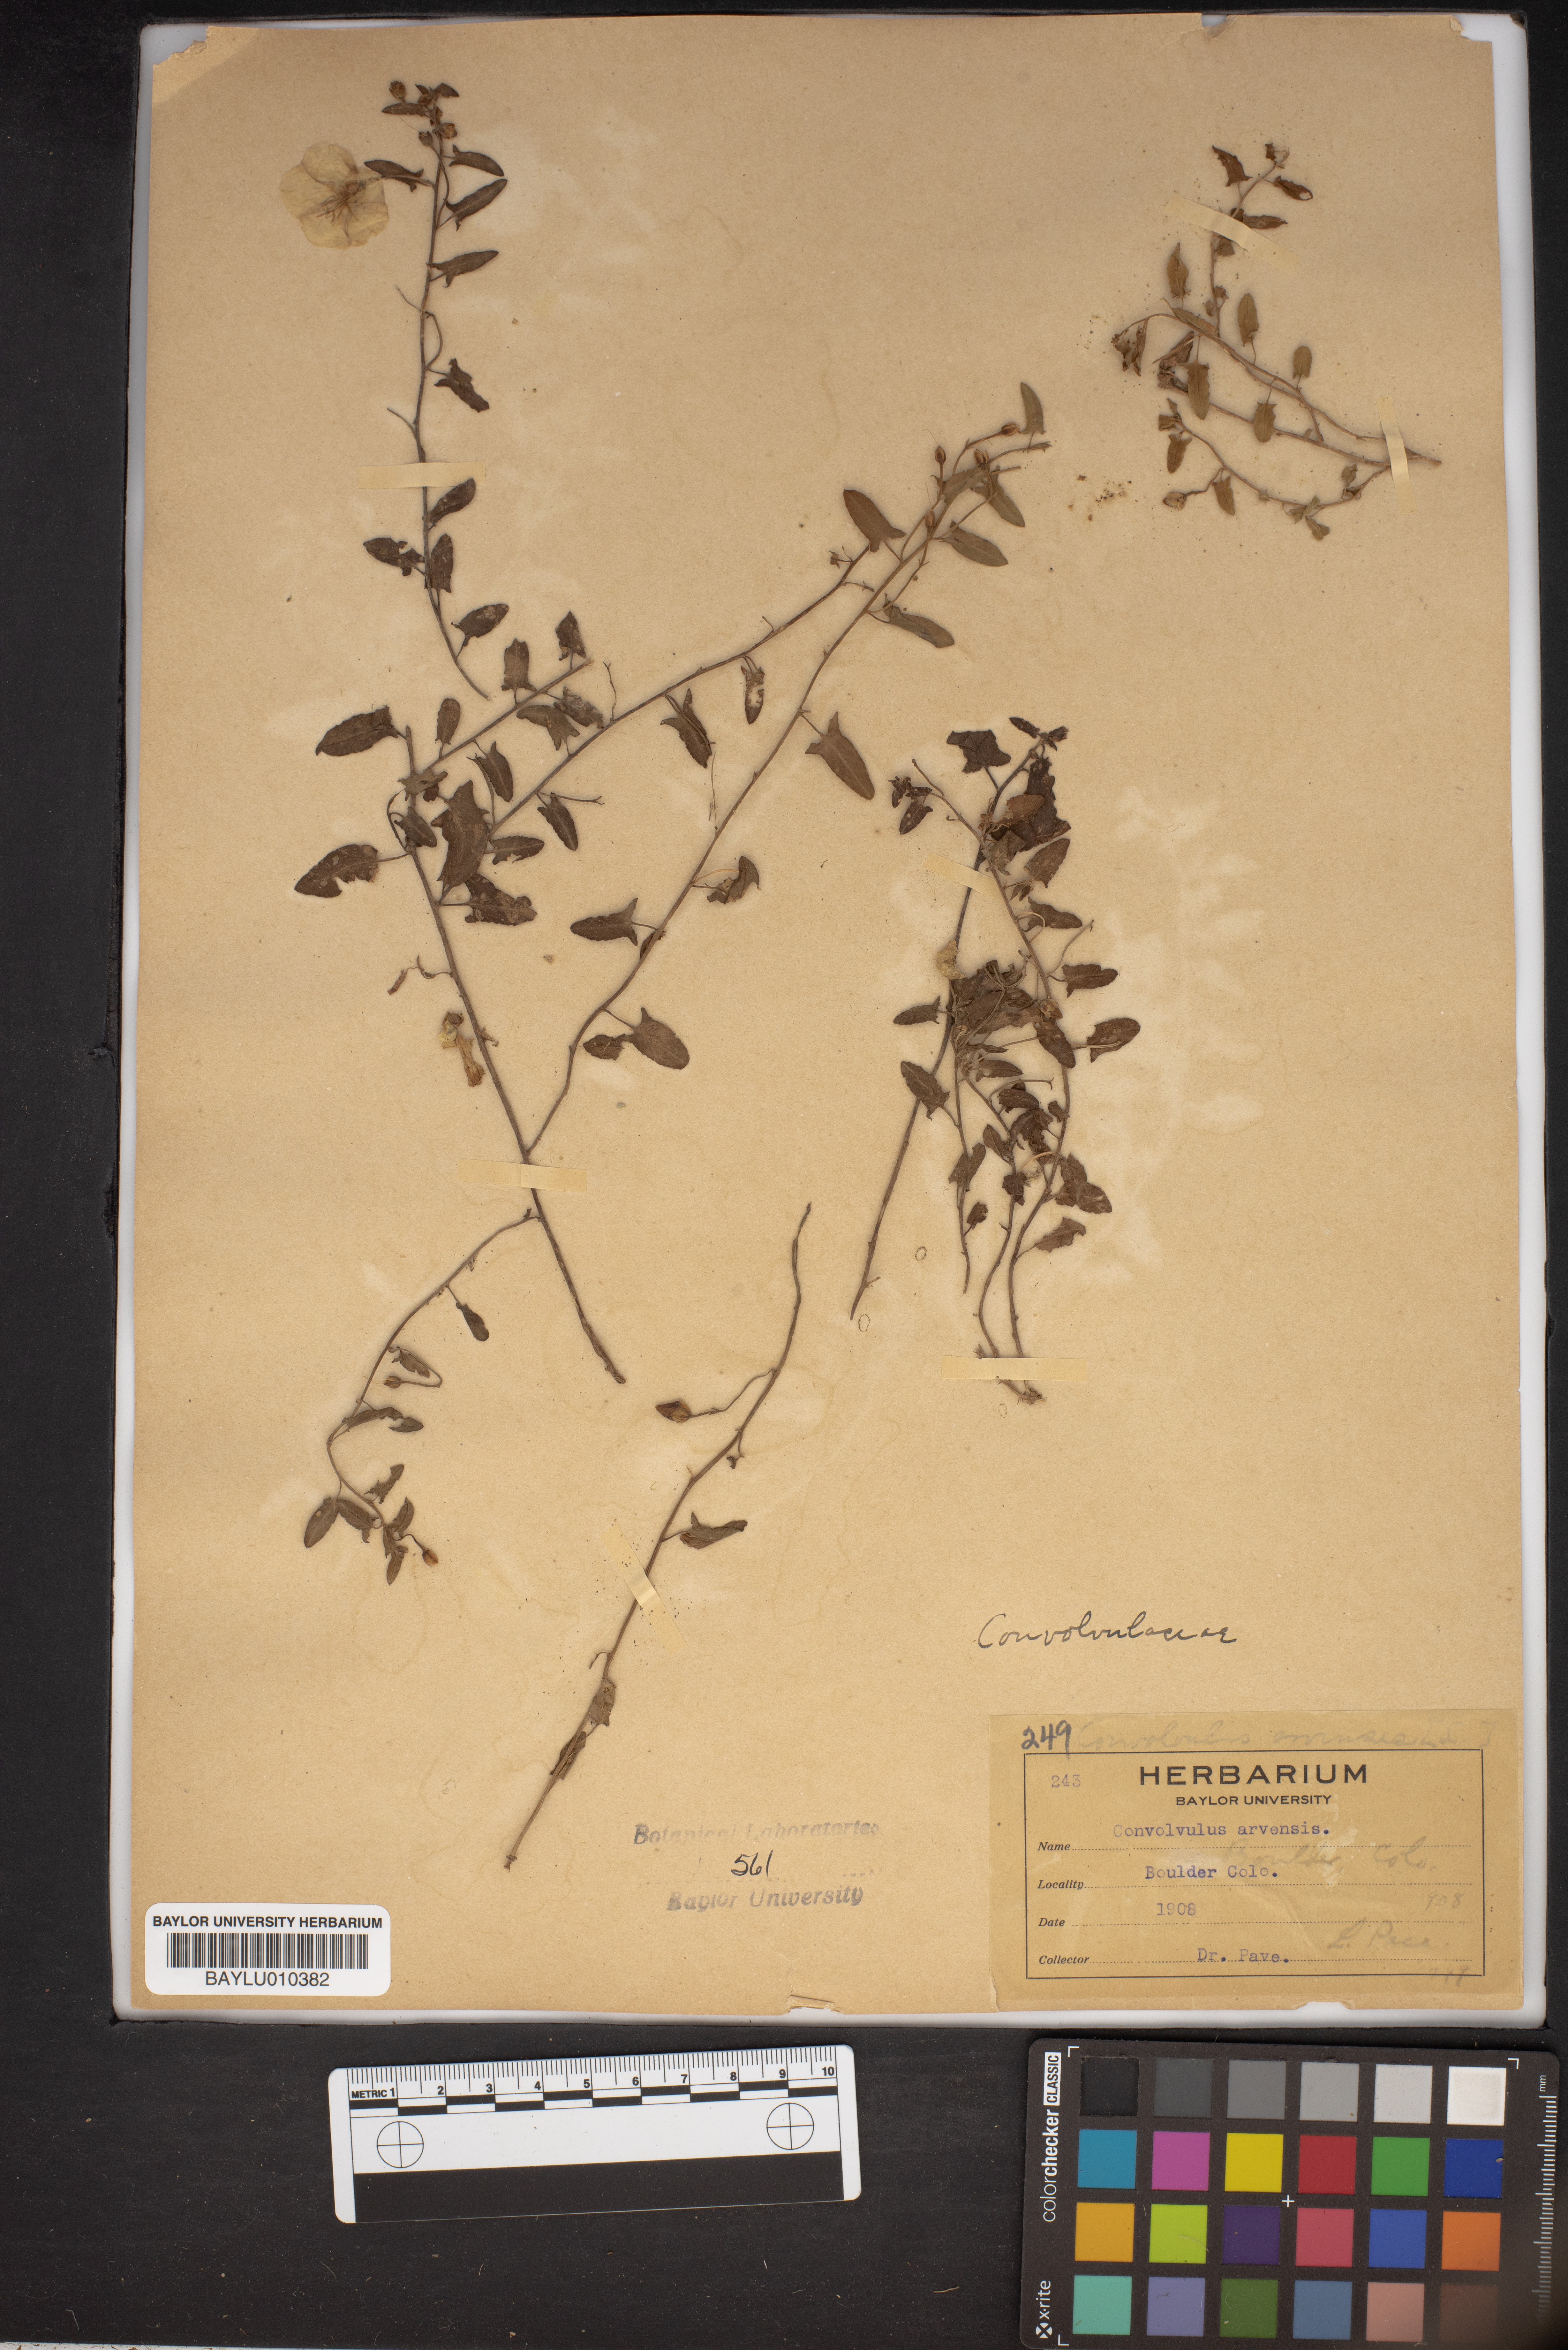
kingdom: Plantae
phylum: Tracheophyta
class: Magnoliopsida
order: Solanales
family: Convolvulaceae
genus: Convolvulus
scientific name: Convolvulus arvensis
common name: Field bindweed
